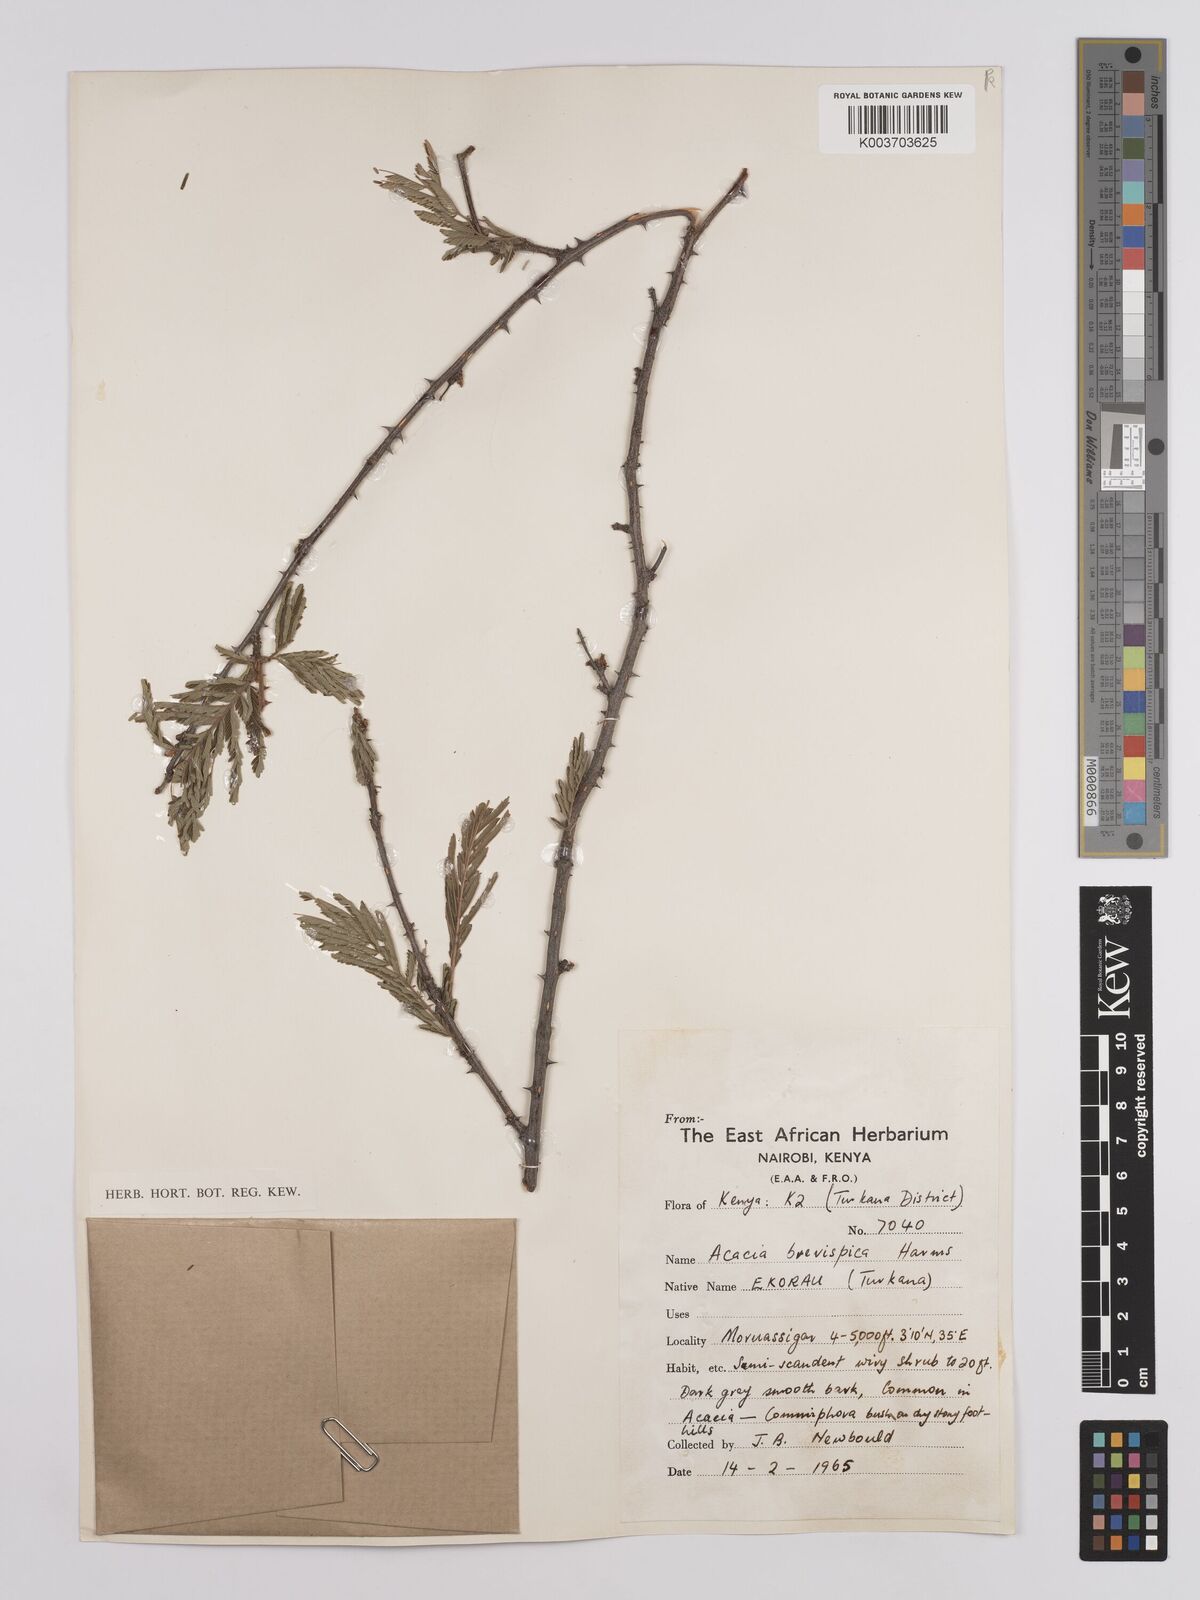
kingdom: Plantae
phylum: Tracheophyta
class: Magnoliopsida
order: Fabales
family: Fabaceae
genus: Senegalia
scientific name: Senegalia brevispica
